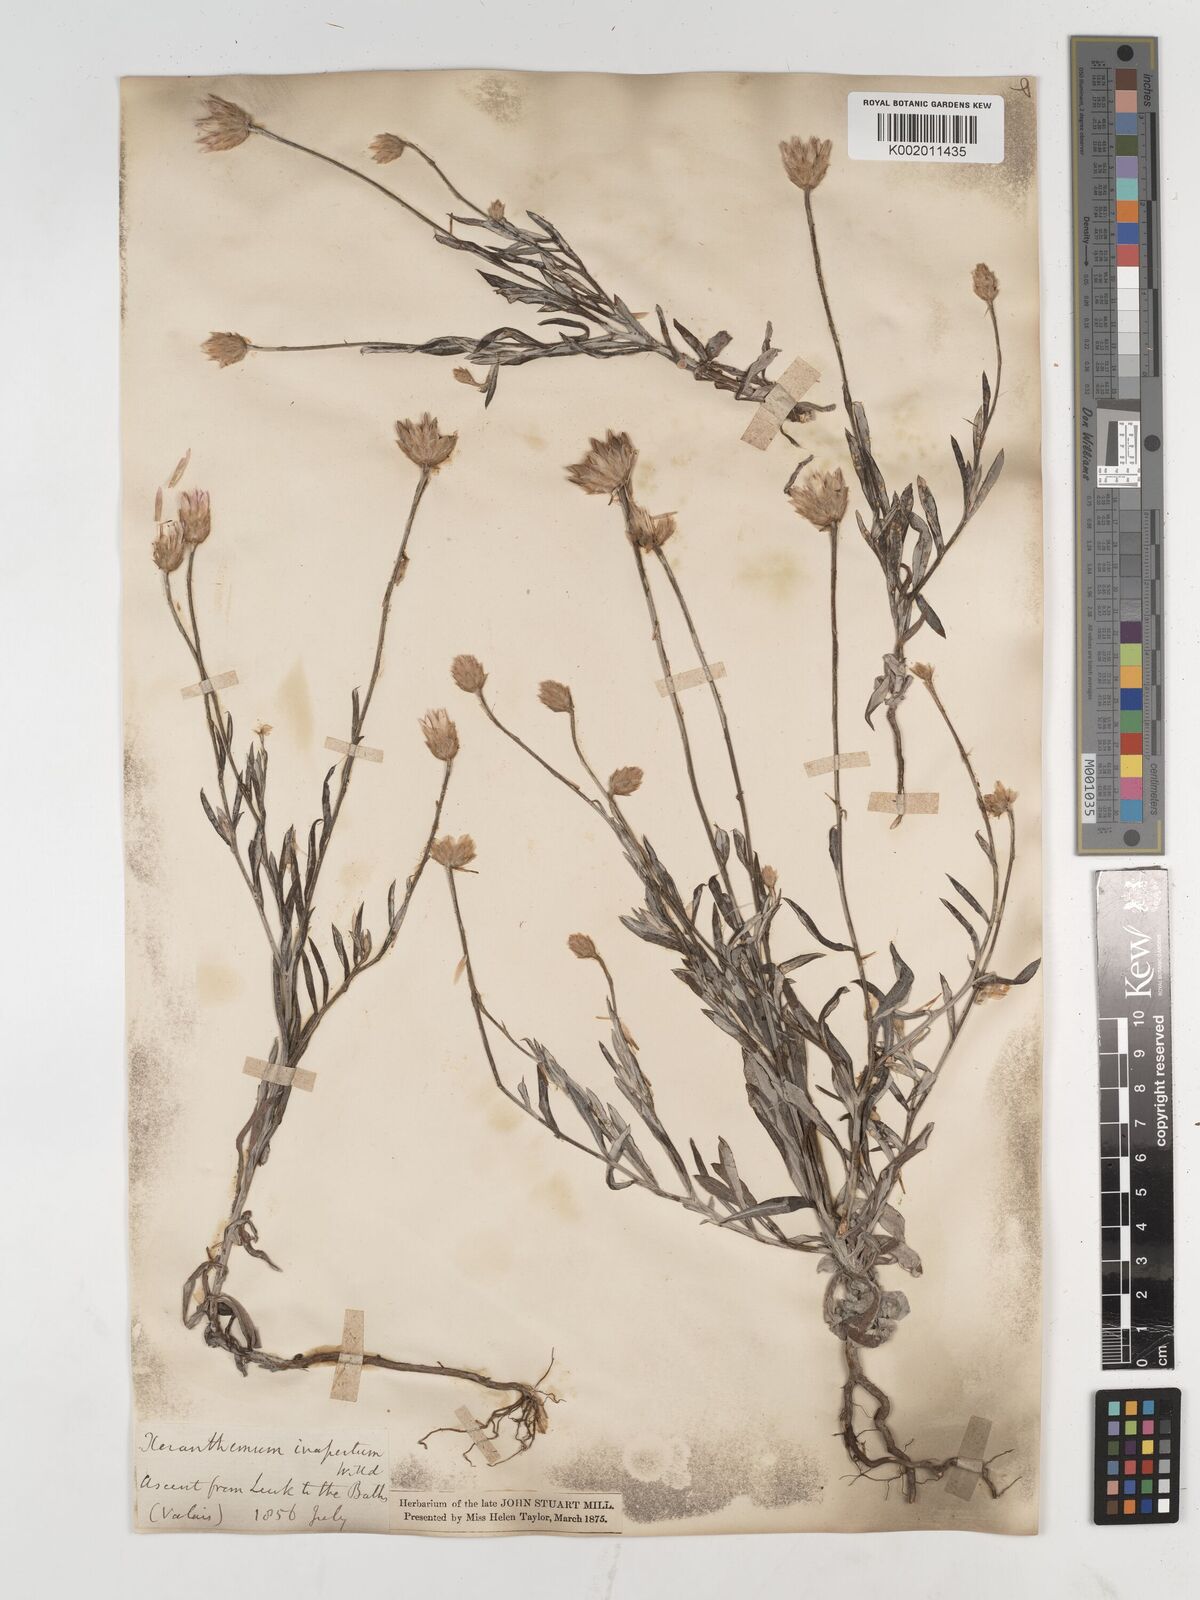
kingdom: Plantae
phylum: Tracheophyta
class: Magnoliopsida
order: Asterales
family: Asteraceae
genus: Xeranthemum
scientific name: Xeranthemum
